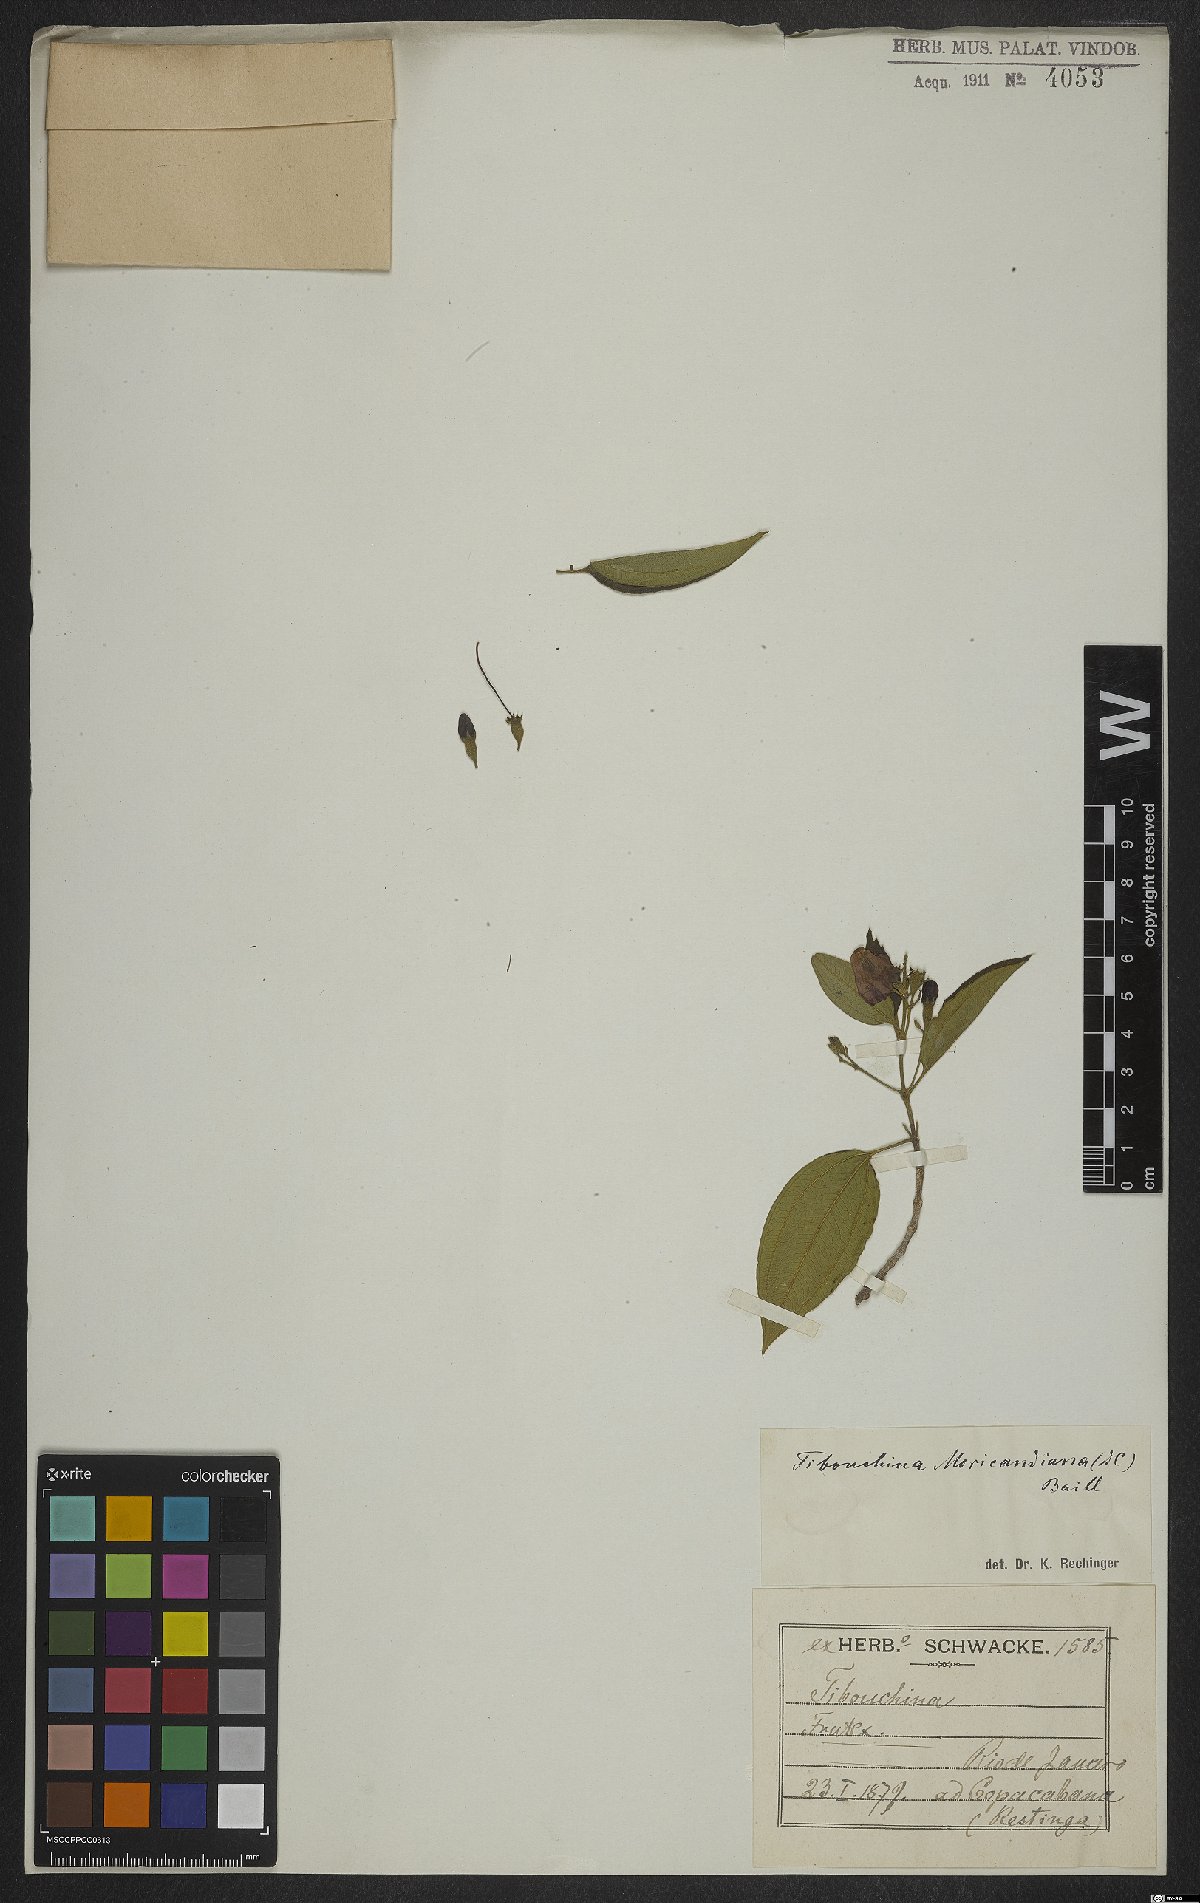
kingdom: Plantae
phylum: Tracheophyta
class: Magnoliopsida
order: Myrtales
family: Melastomataceae
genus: Pleroma
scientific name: Pleroma gaudichaudianum
